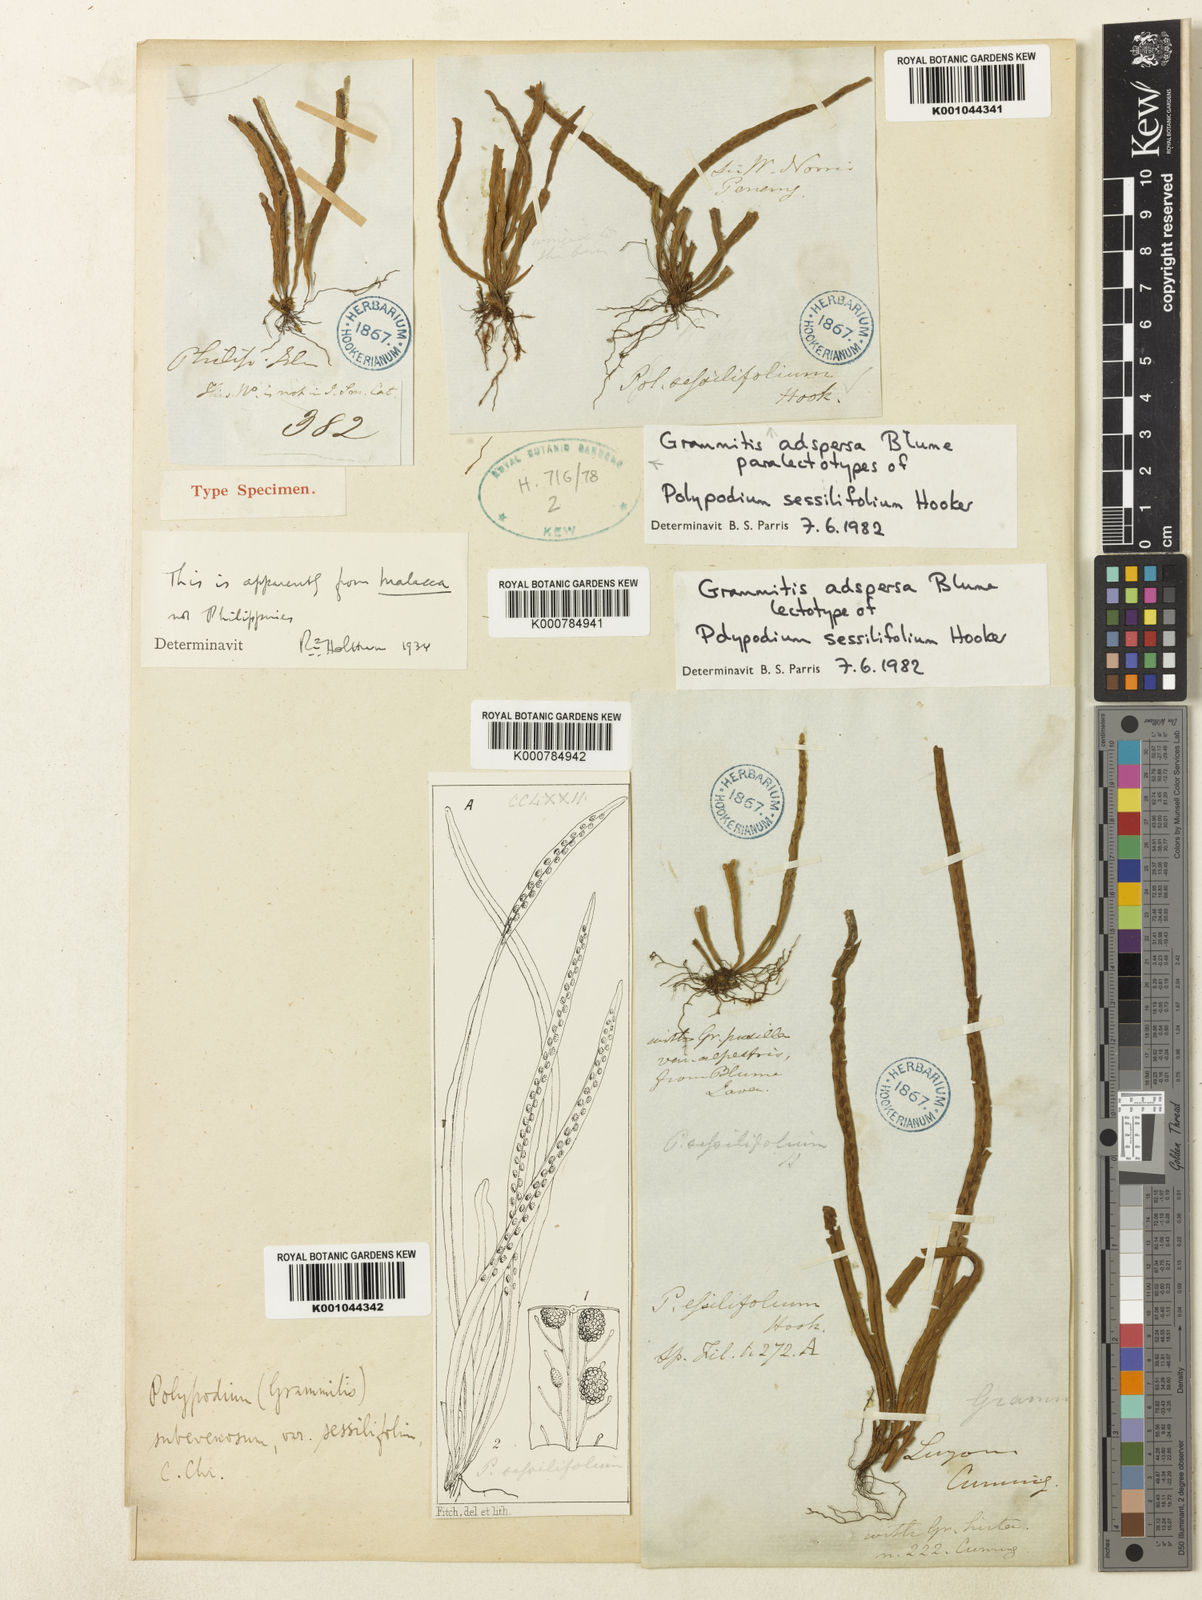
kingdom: Plantae
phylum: Tracheophyta
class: Polypodiopsida
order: Polypodiales
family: Polypodiaceae
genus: Oreogrammitis
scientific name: Oreogrammitis adspersa
